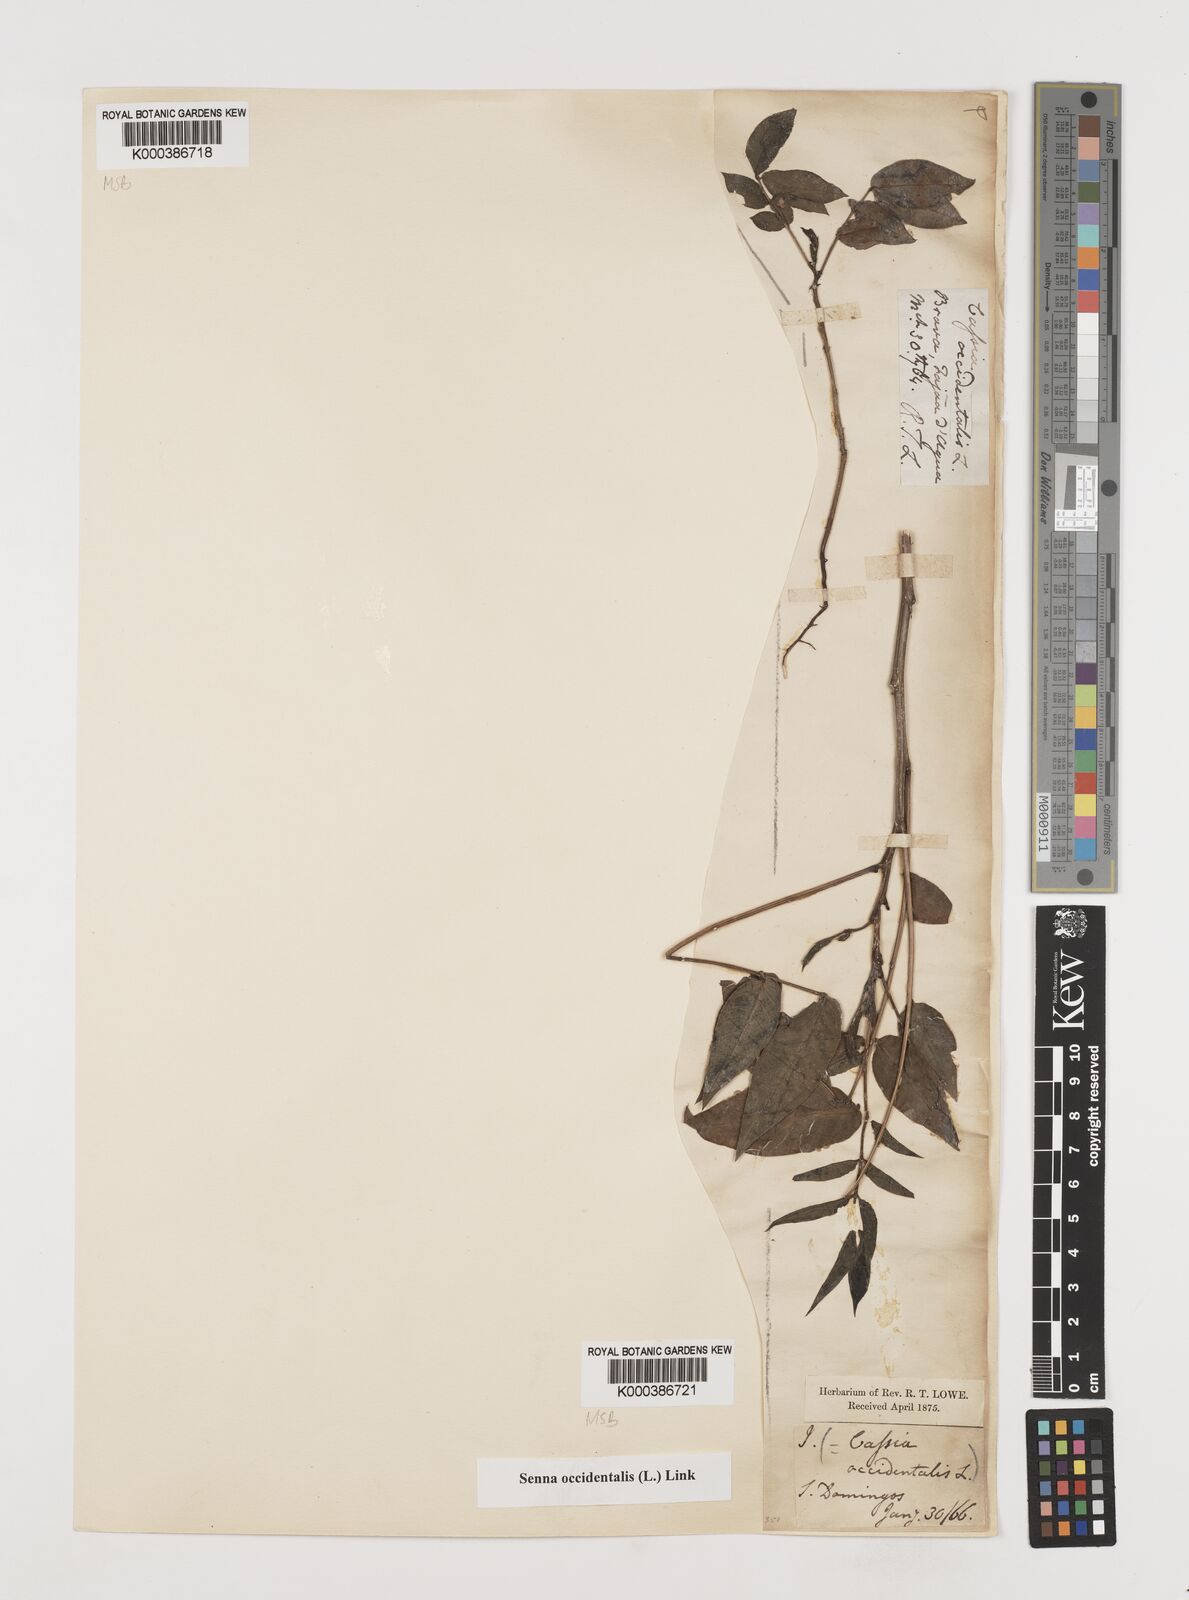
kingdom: Plantae
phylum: Tracheophyta
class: Magnoliopsida
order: Fabales
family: Fabaceae
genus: Senna
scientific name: Senna occidentalis
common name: Septicweed
